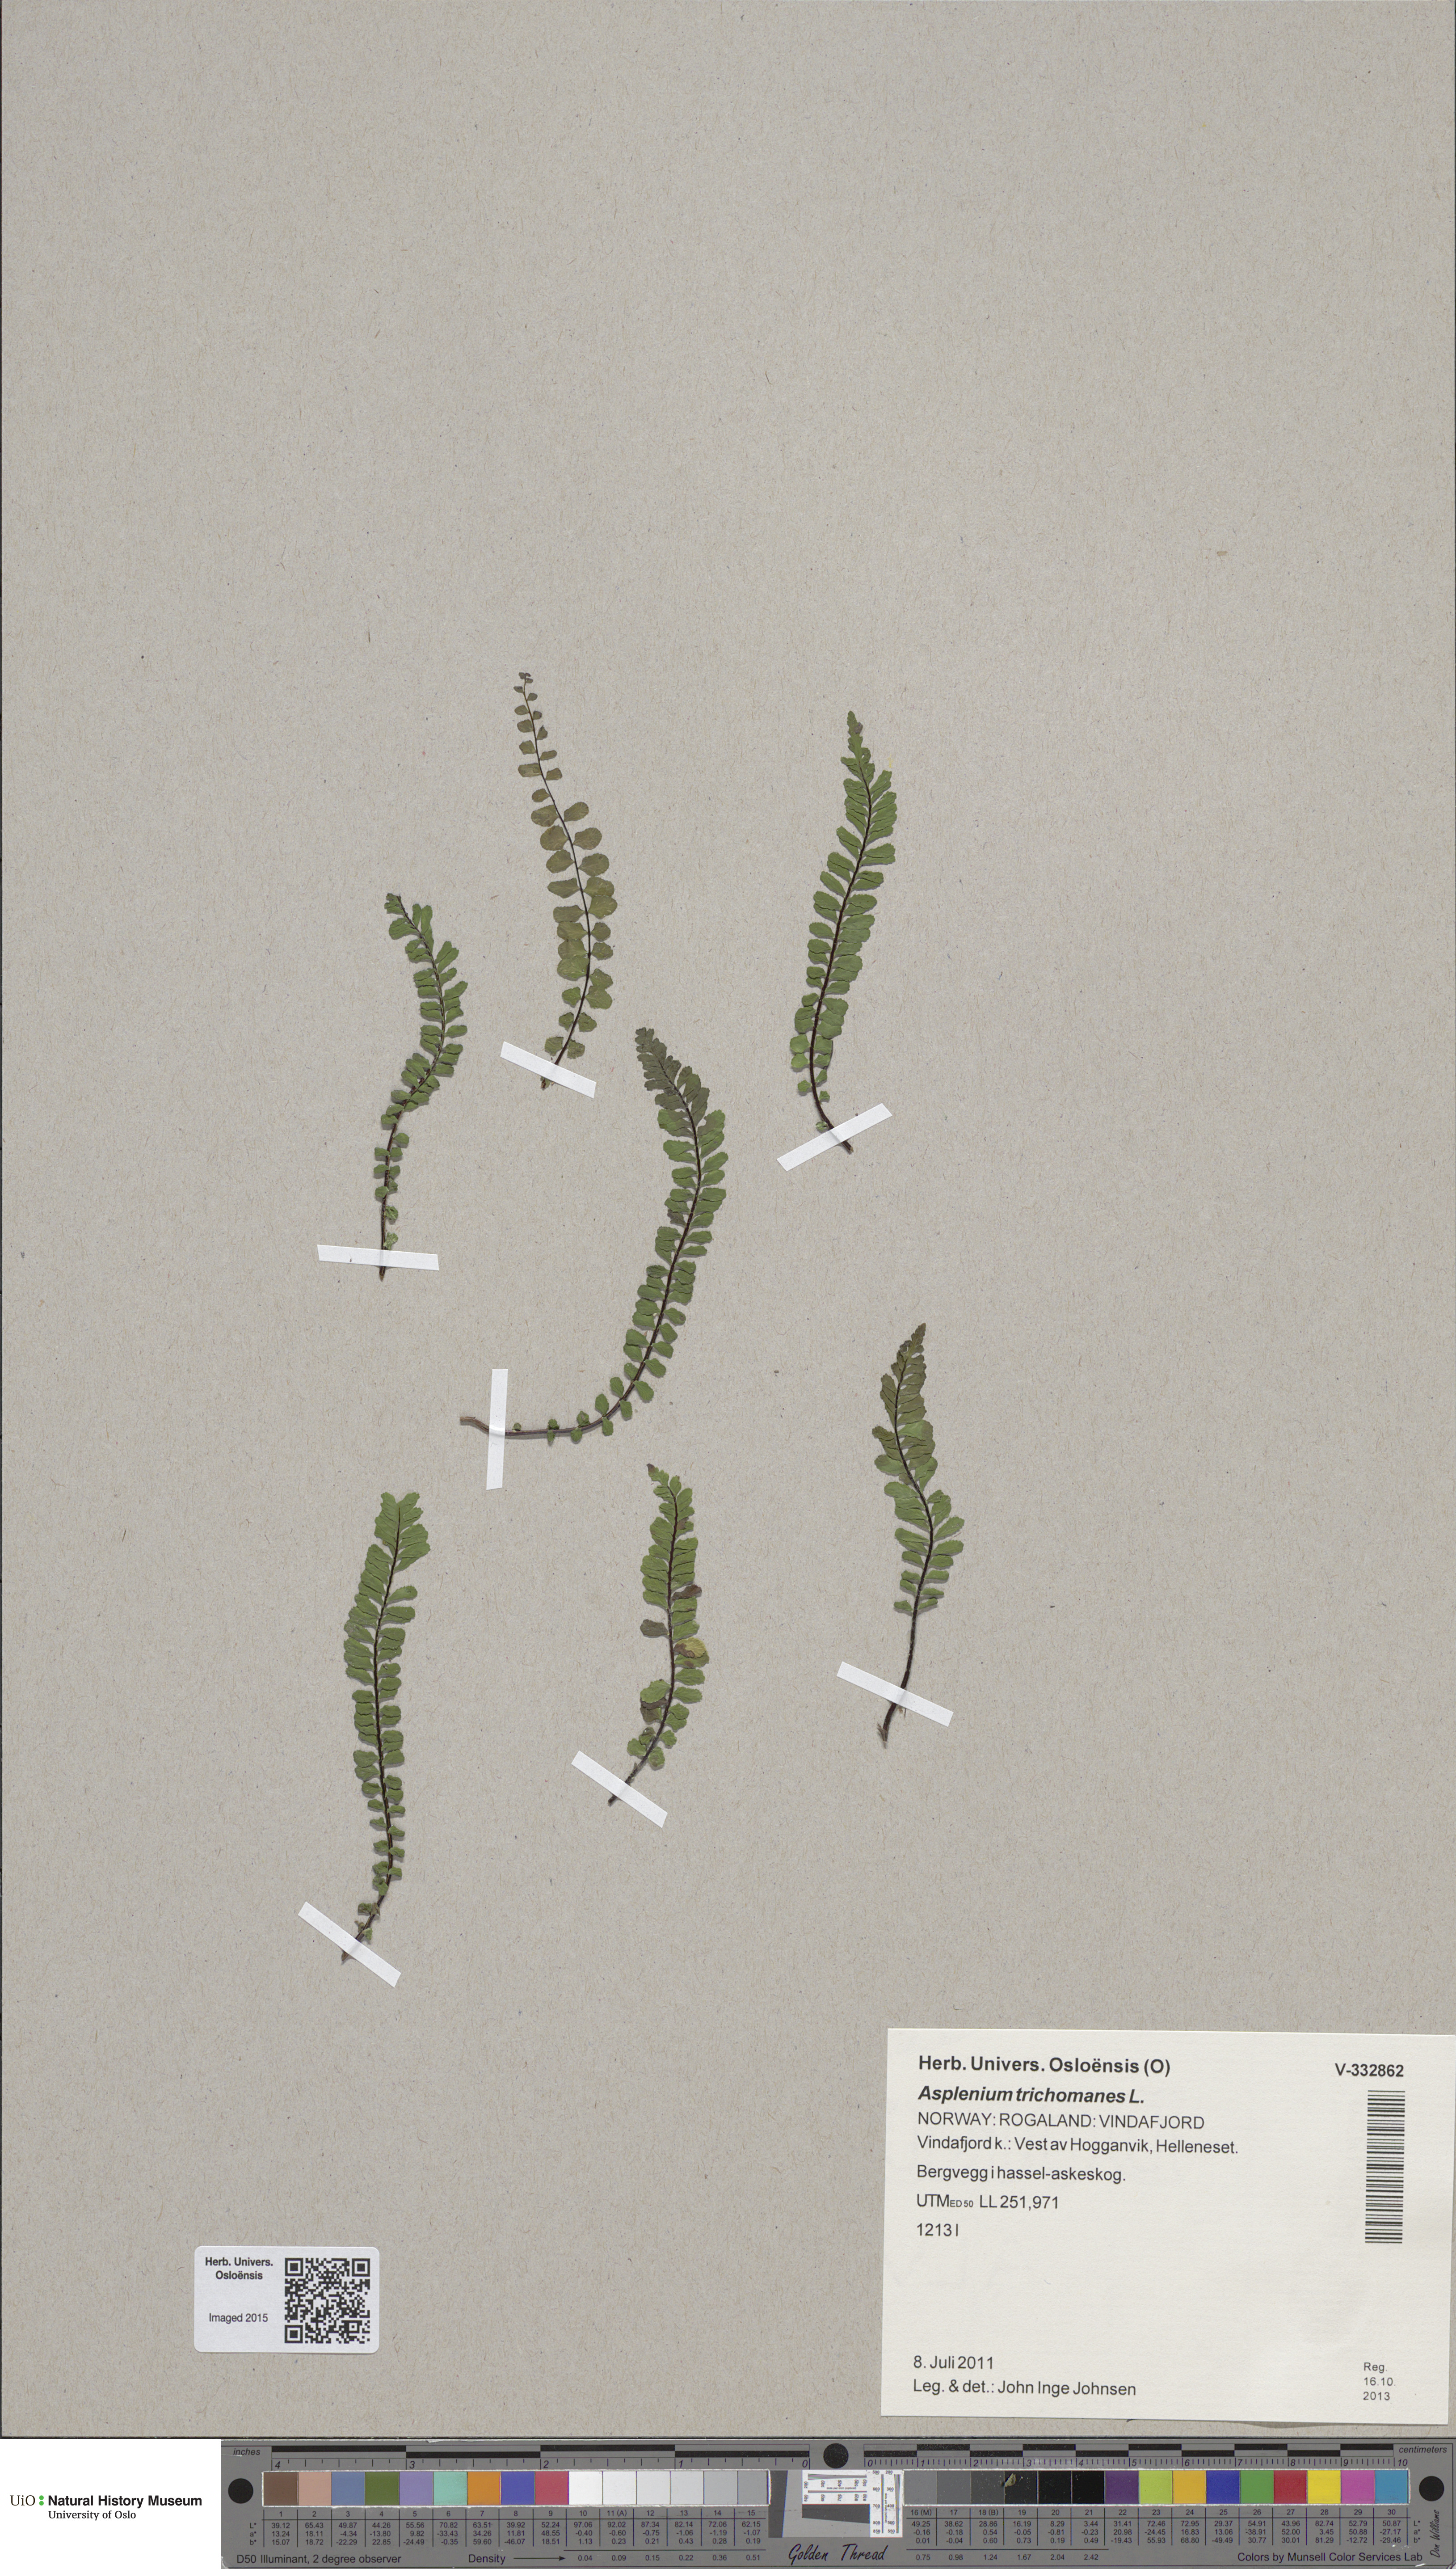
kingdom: Plantae
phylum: Tracheophyta
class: Polypodiopsida
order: Polypodiales
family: Aspleniaceae
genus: Asplenium
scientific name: Asplenium trichomanes
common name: Maidenhair spleenwort
